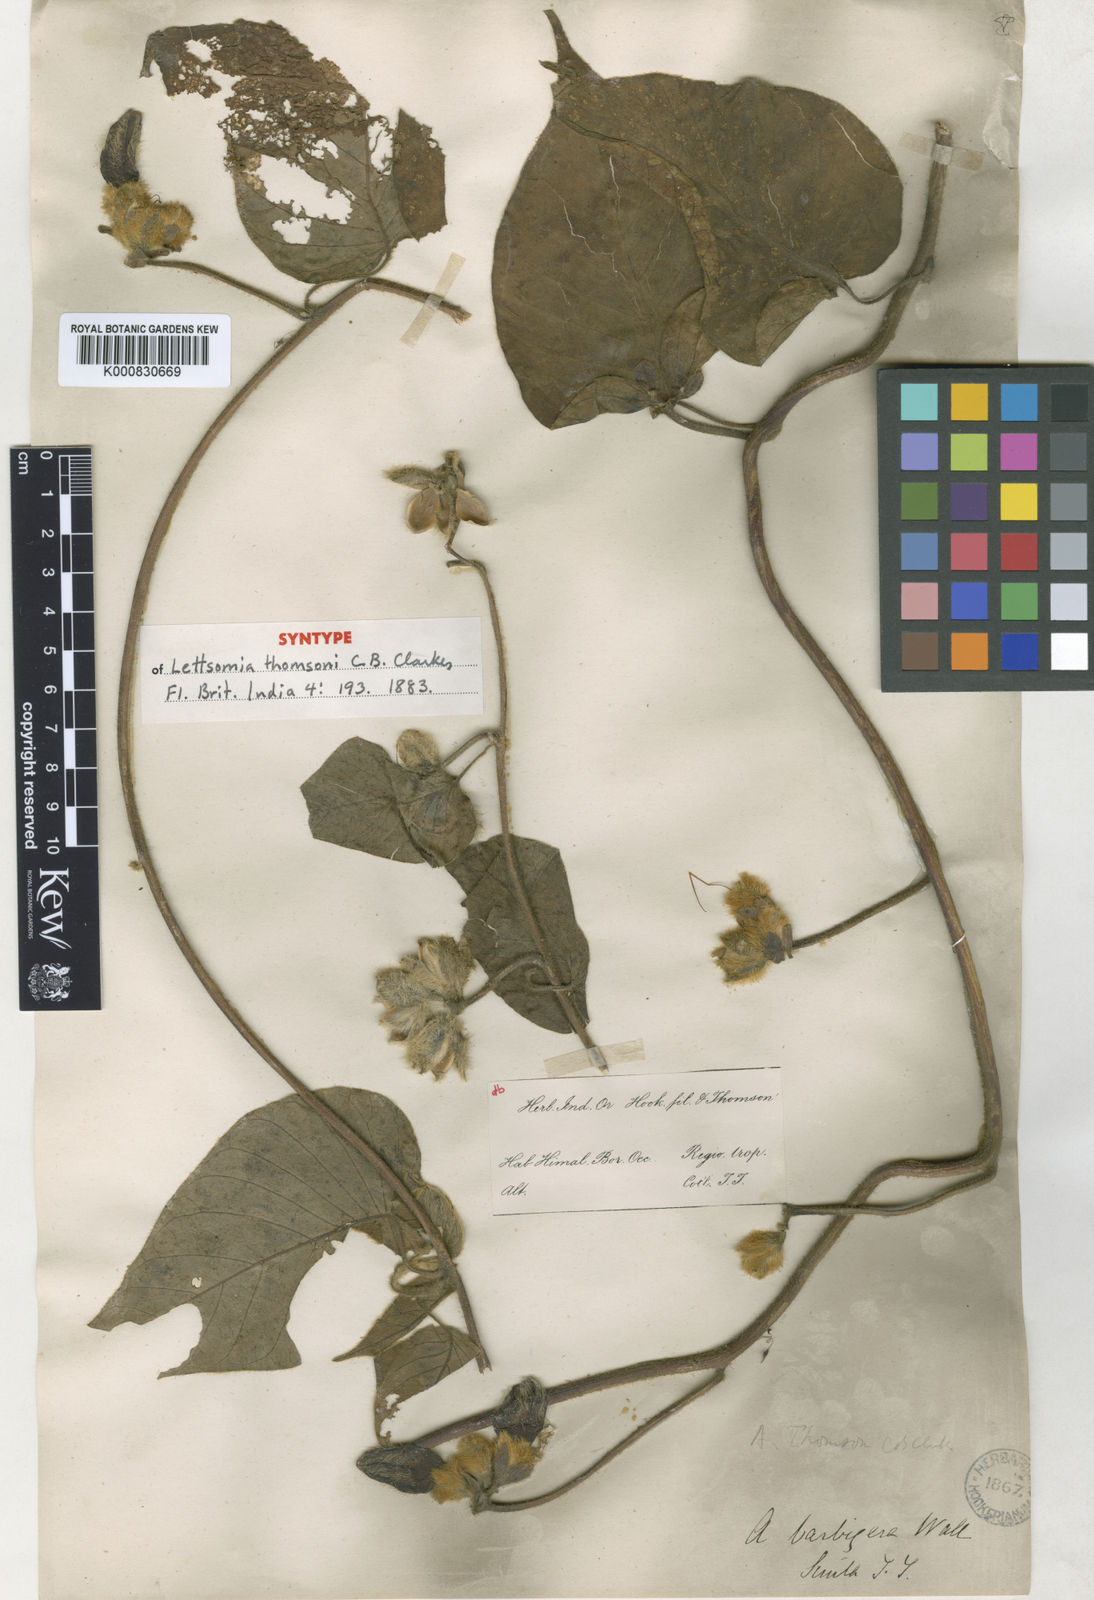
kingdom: Plantae
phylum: Tracheophyta
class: Magnoliopsida
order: Solanales
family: Convolvulaceae
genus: Argyreia
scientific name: Argyreia thomsonii
